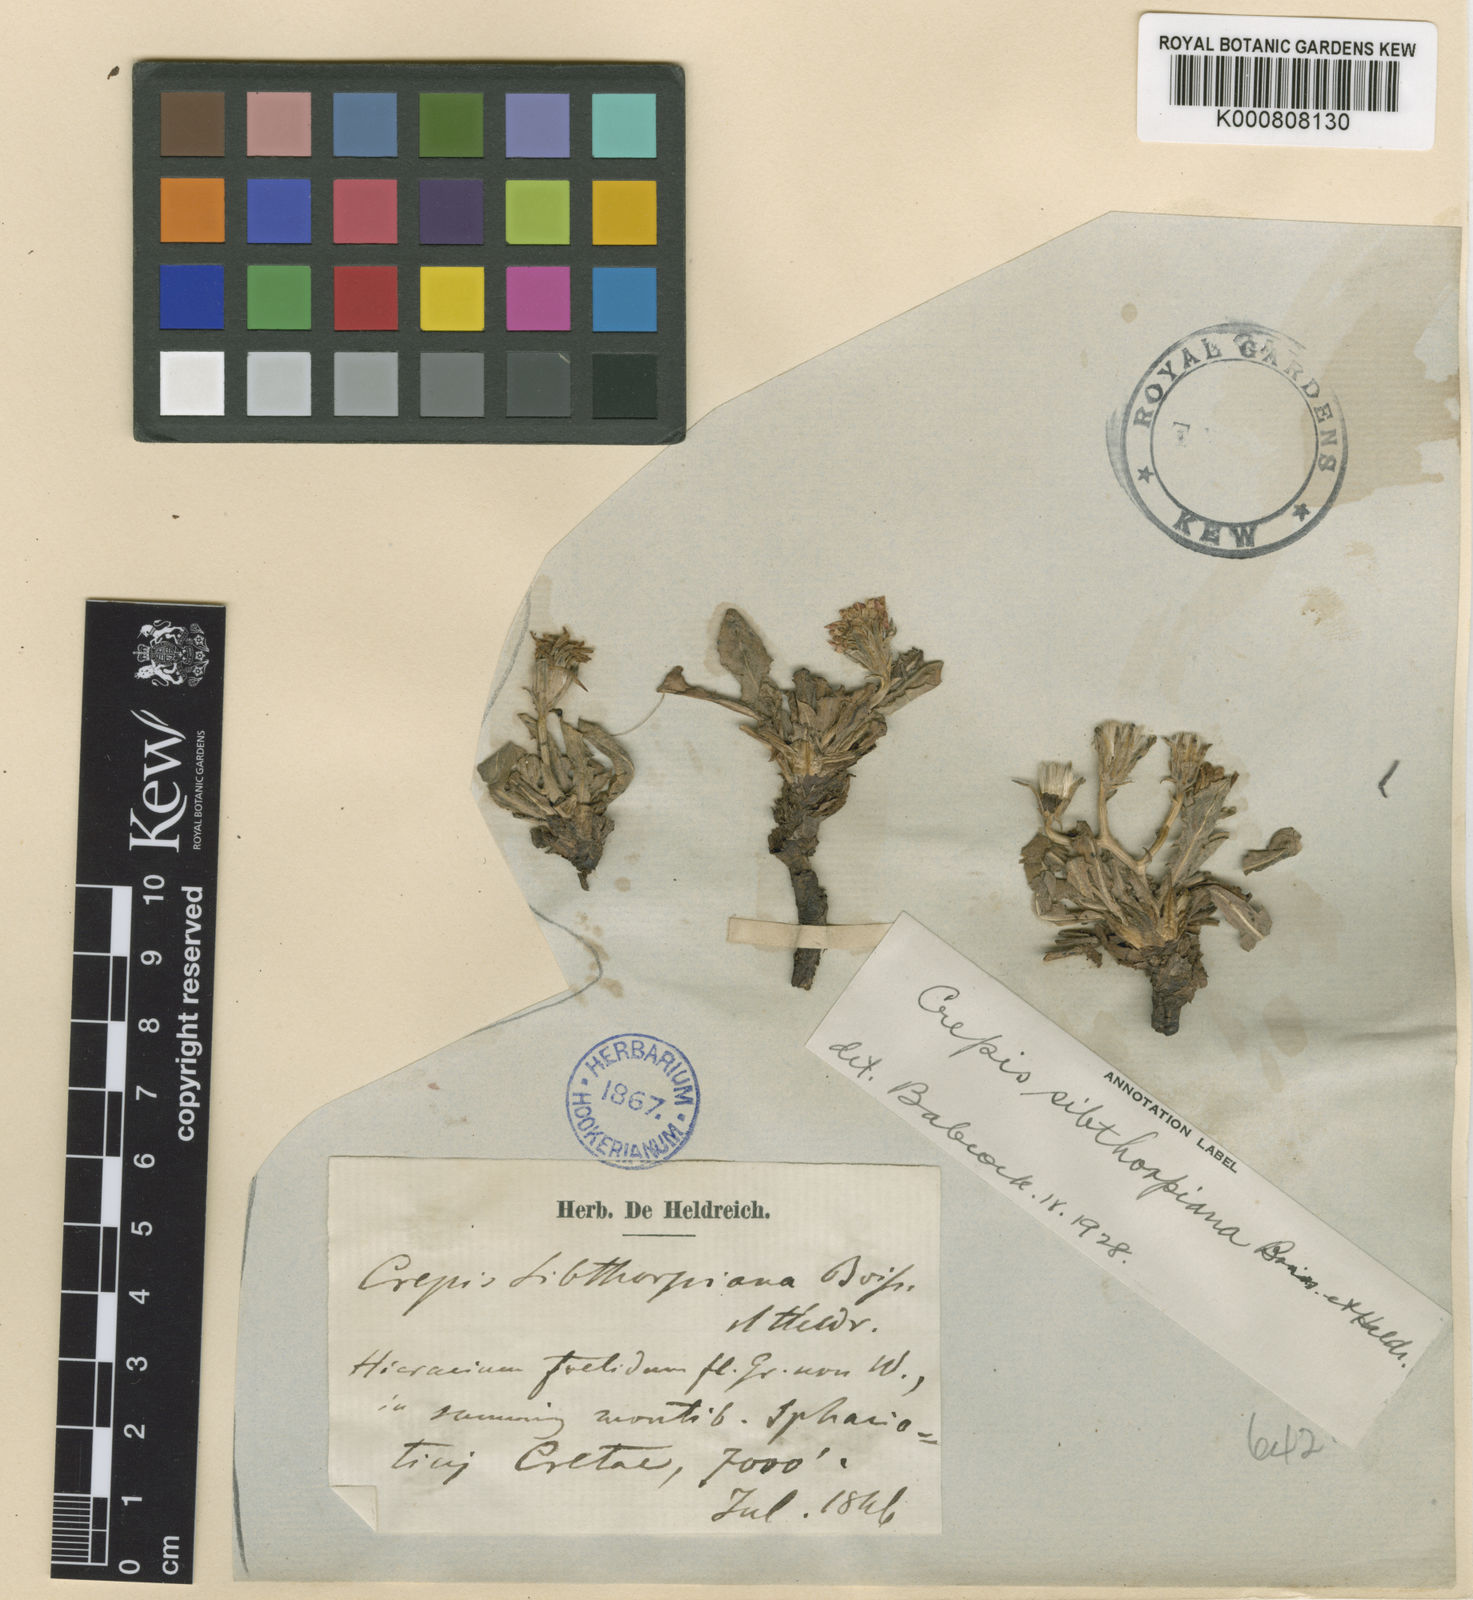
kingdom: Plantae
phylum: Tracheophyta
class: Magnoliopsida
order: Asterales
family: Asteraceae
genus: Crepis
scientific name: Crepis sibthorpiana
